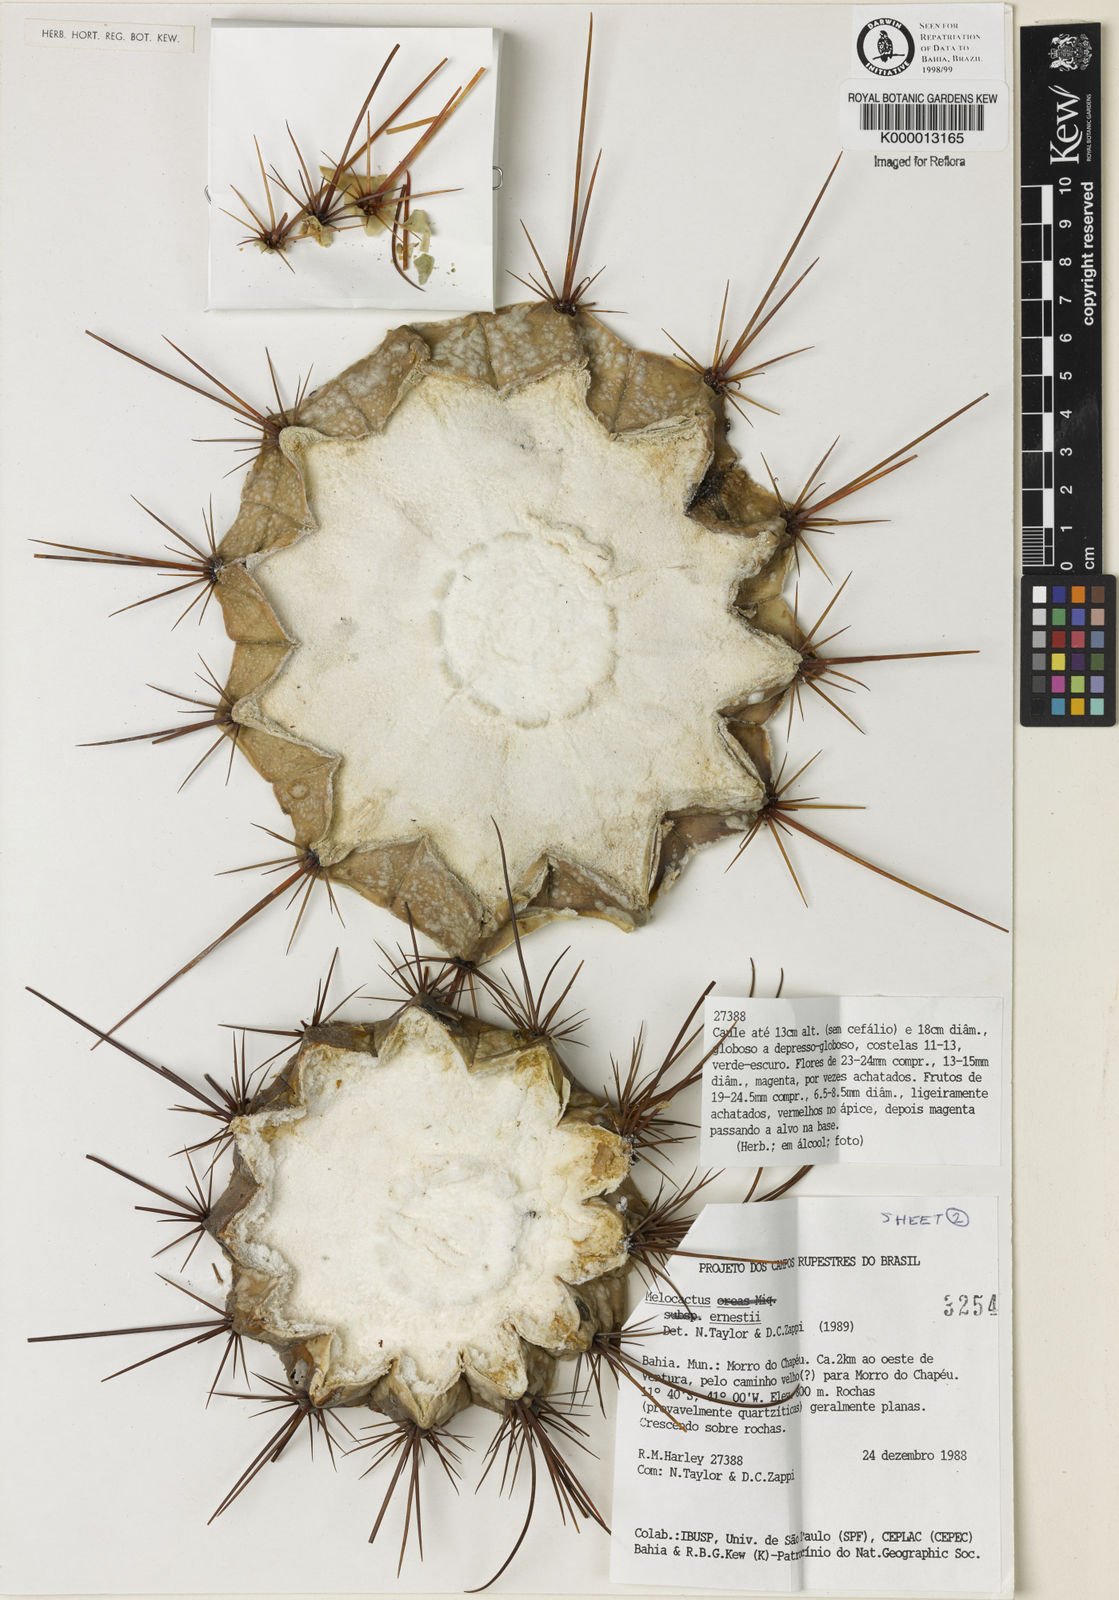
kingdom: Plantae
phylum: Tracheophyta
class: Magnoliopsida
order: Caryophyllales
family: Cactaceae
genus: Melocactus
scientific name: Melocactus ernestii
